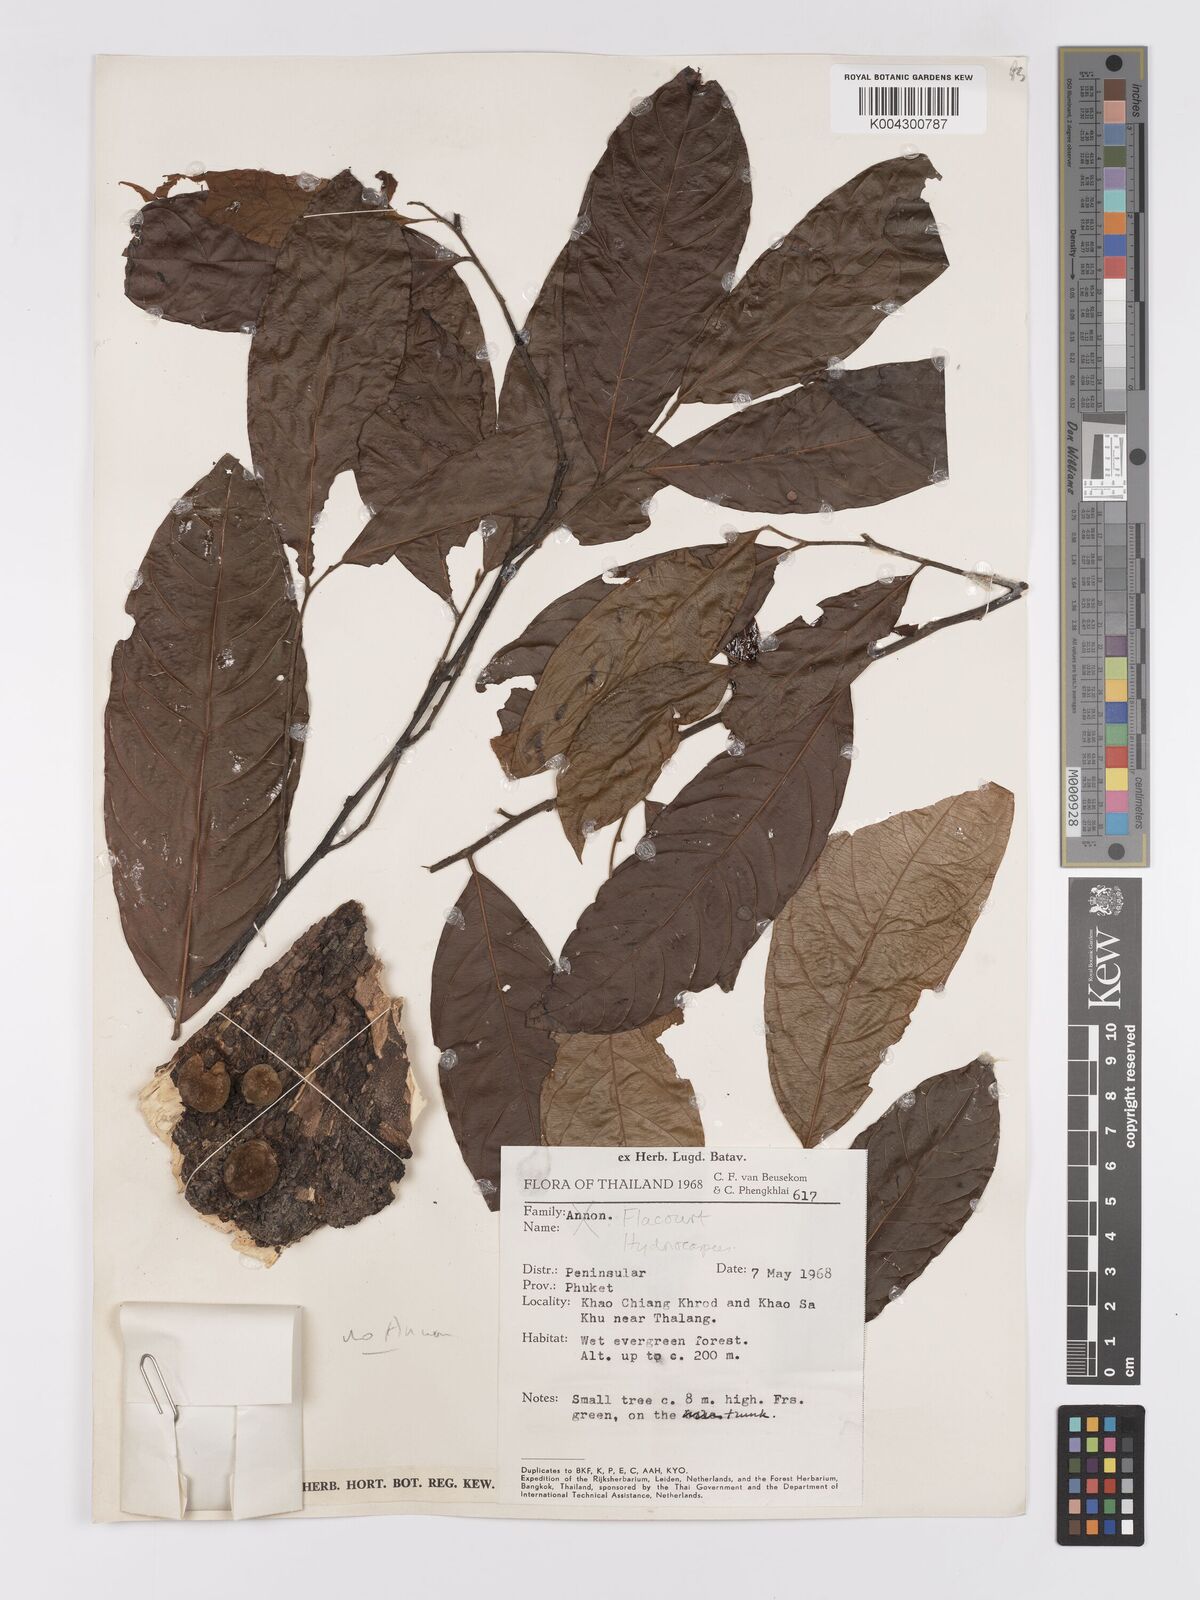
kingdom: Plantae
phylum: Tracheophyta
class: Magnoliopsida
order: Malpighiales
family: Achariaceae
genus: Hydnocarpus
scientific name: Hydnocarpus
